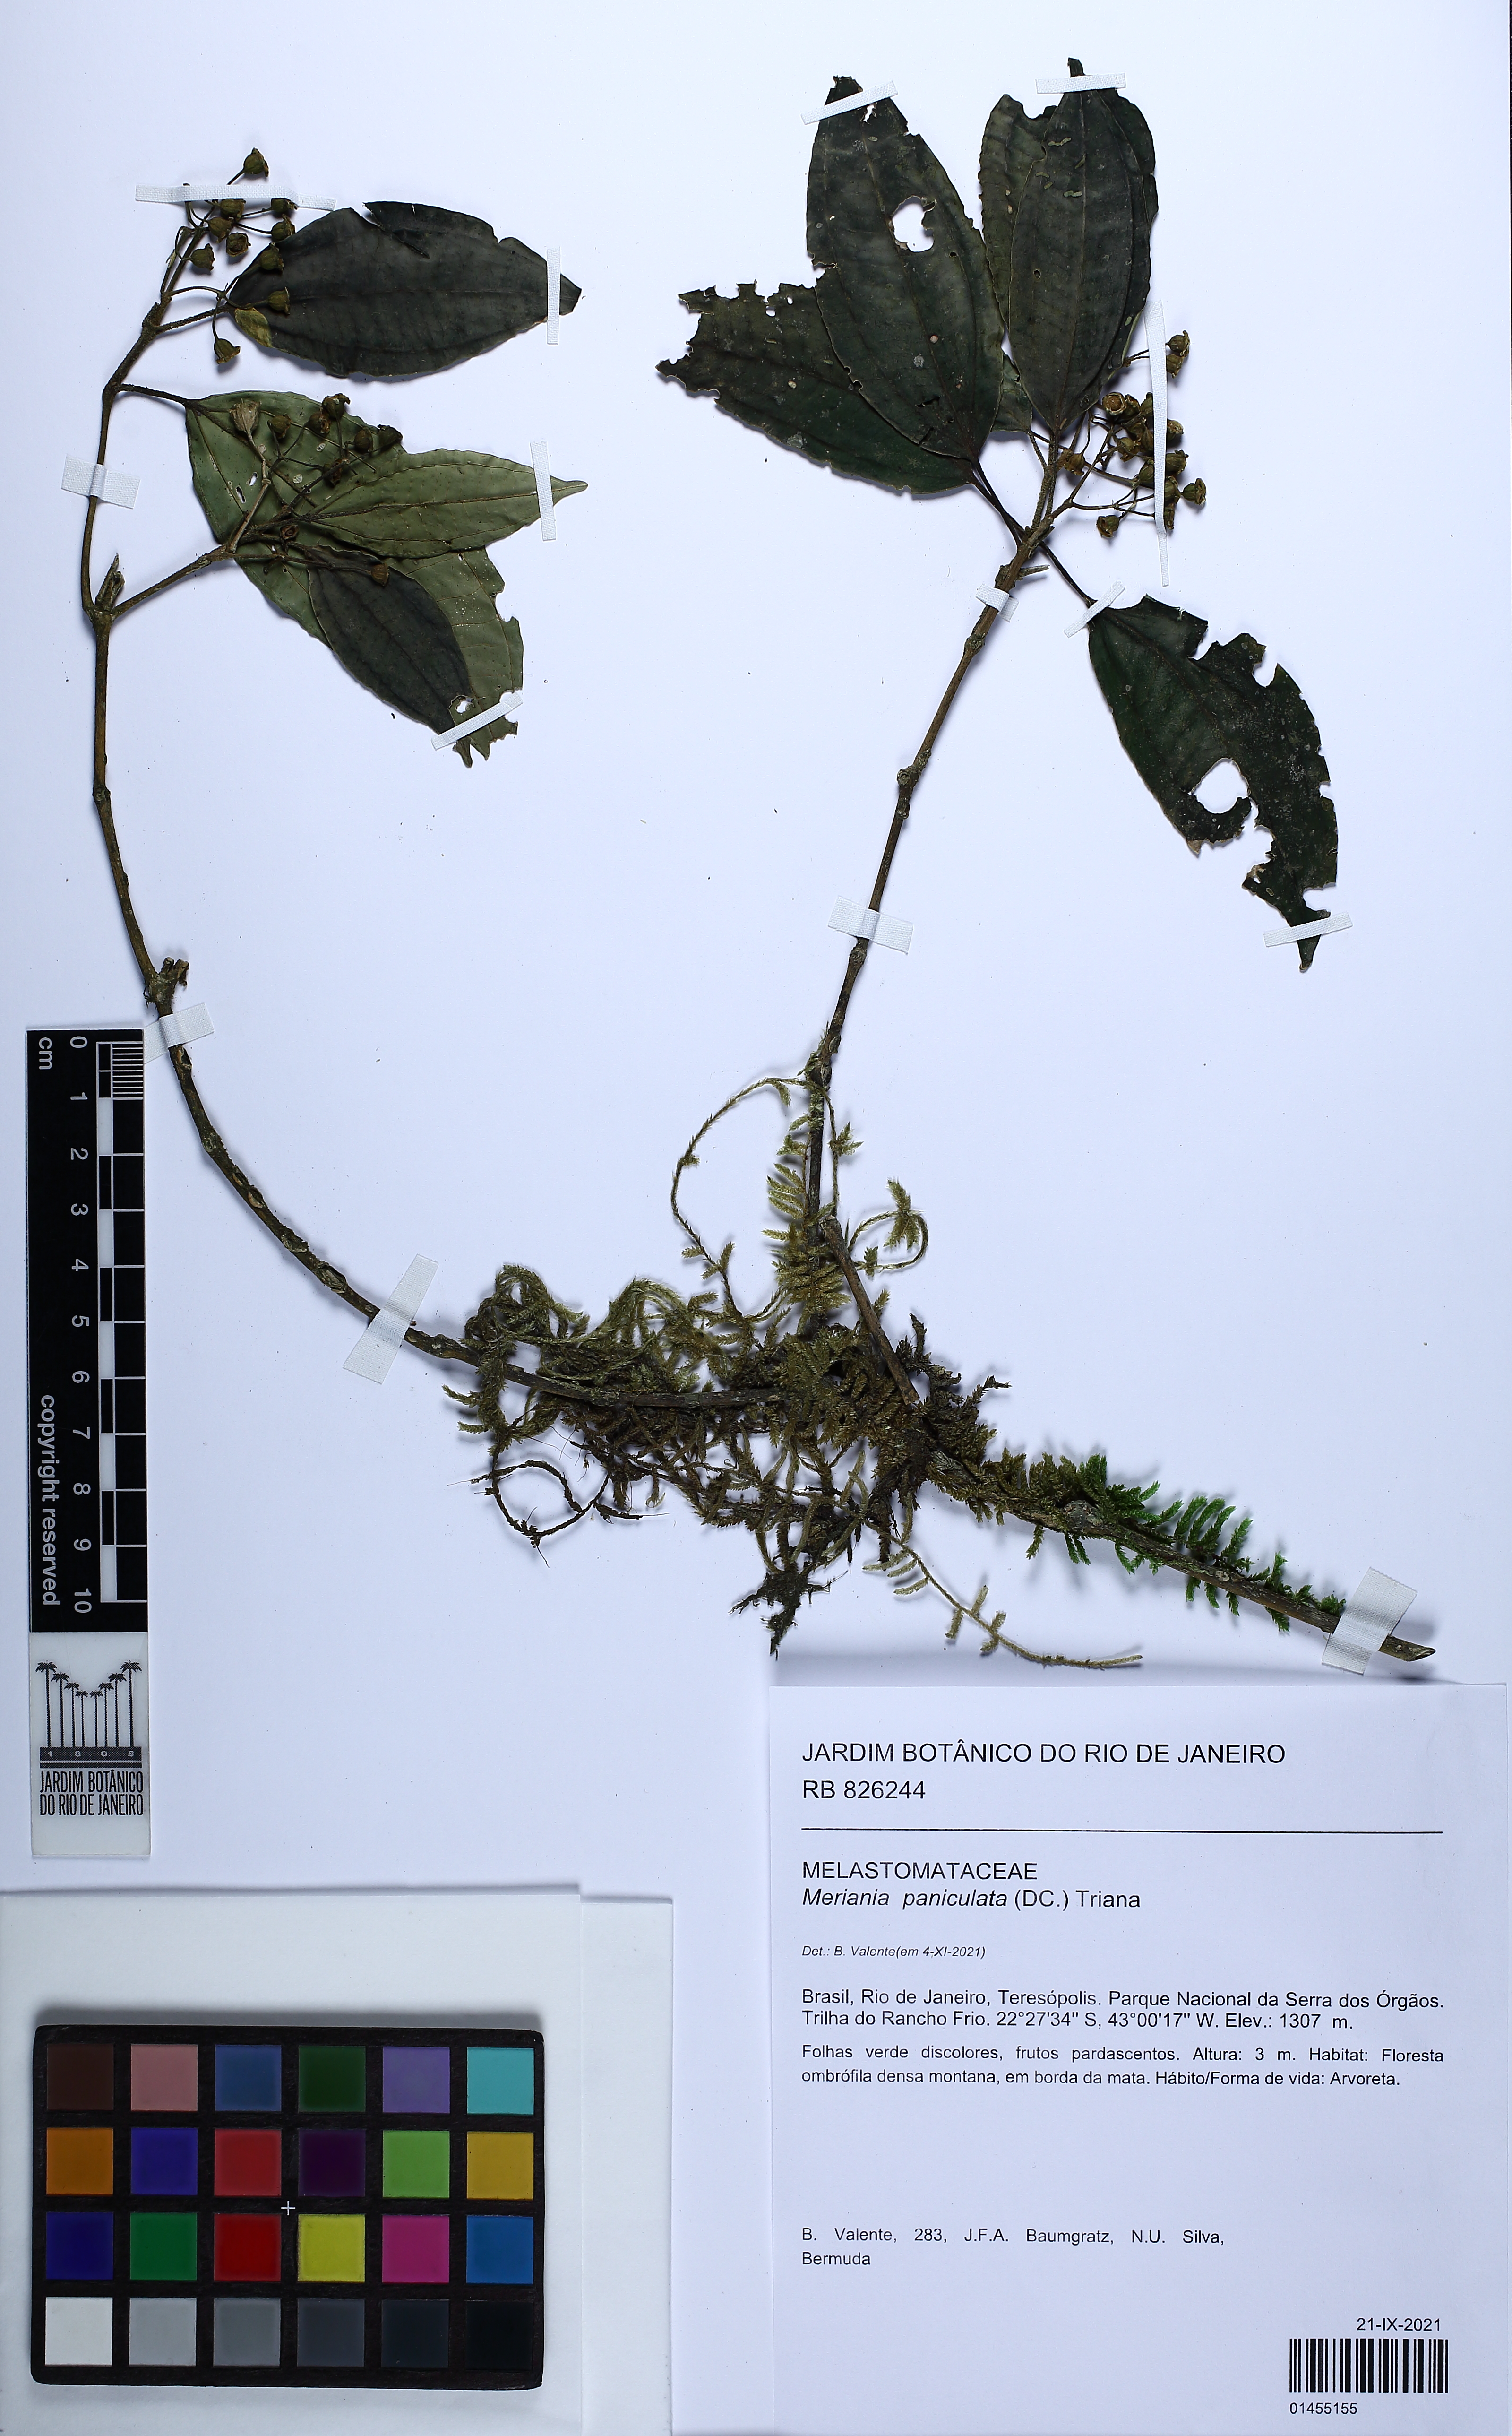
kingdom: Plantae
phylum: Tracheophyta
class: Magnoliopsida
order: Myrtales
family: Melastomataceae
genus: Meriania
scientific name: Meriania paniculata
